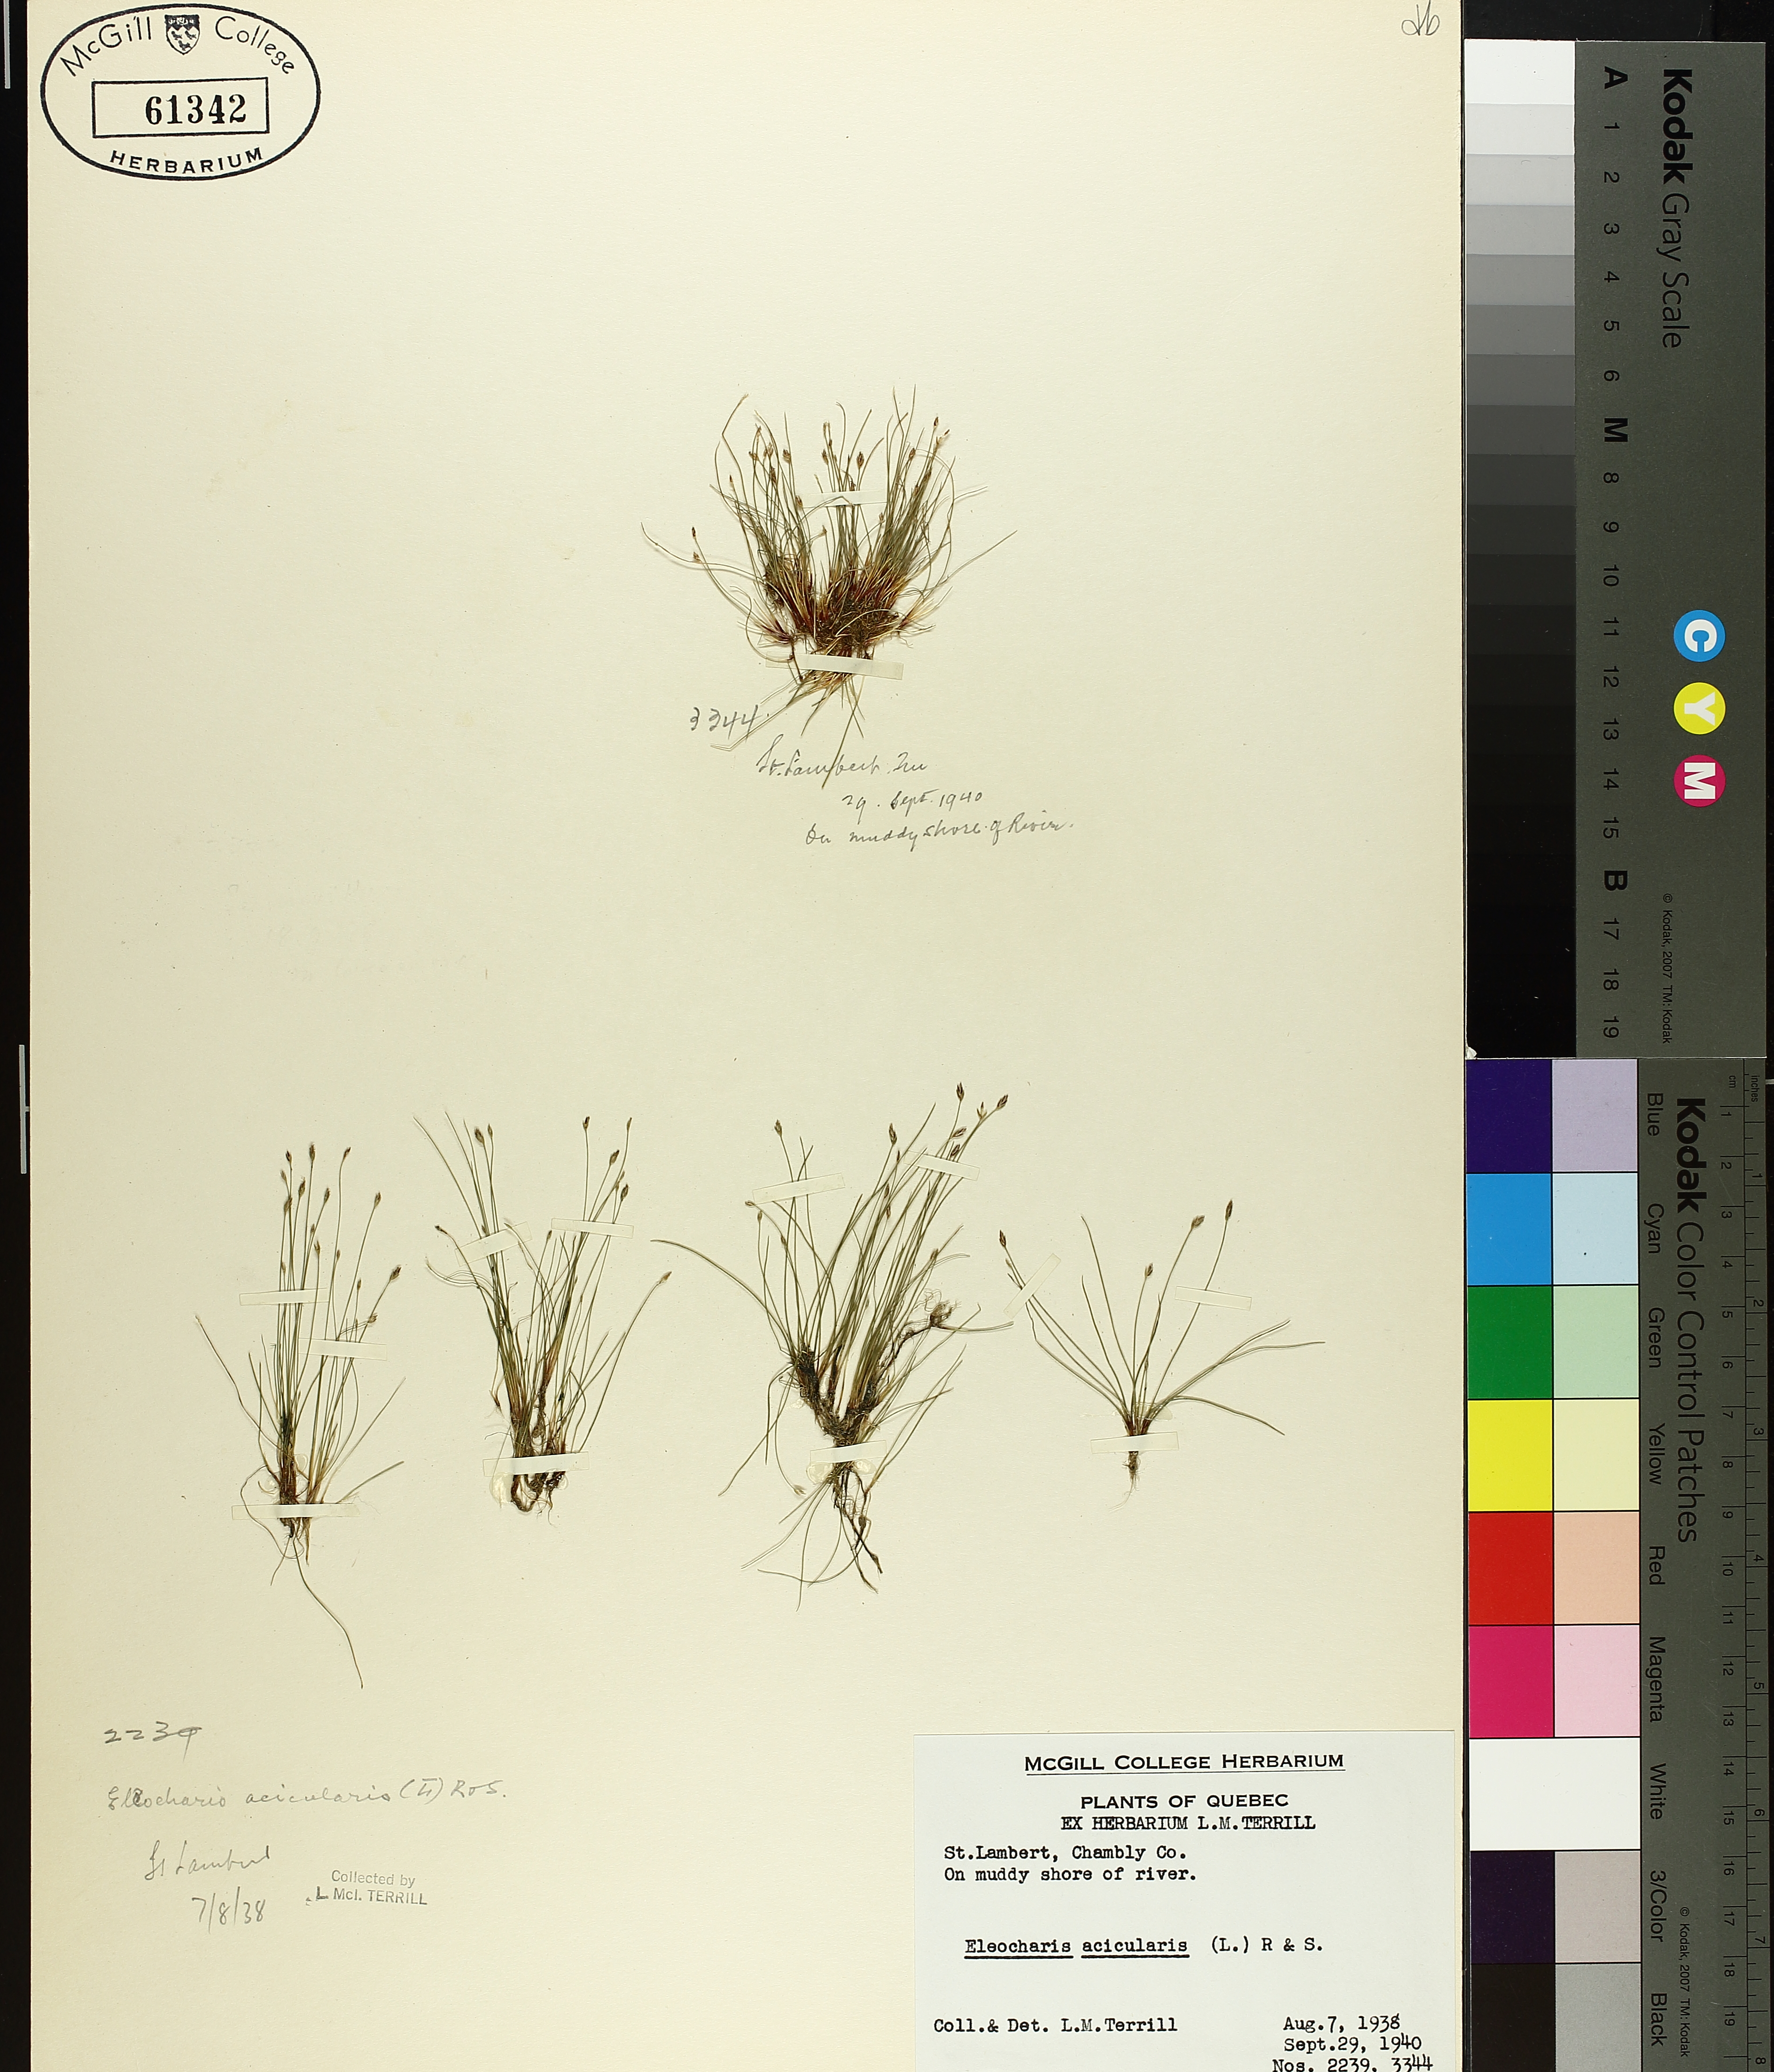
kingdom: Plantae
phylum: Tracheophyta
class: Liliopsida
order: Poales
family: Cyperaceae
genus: Eleocharis
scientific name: Eleocharis acicularis
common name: Needle spike-rush
